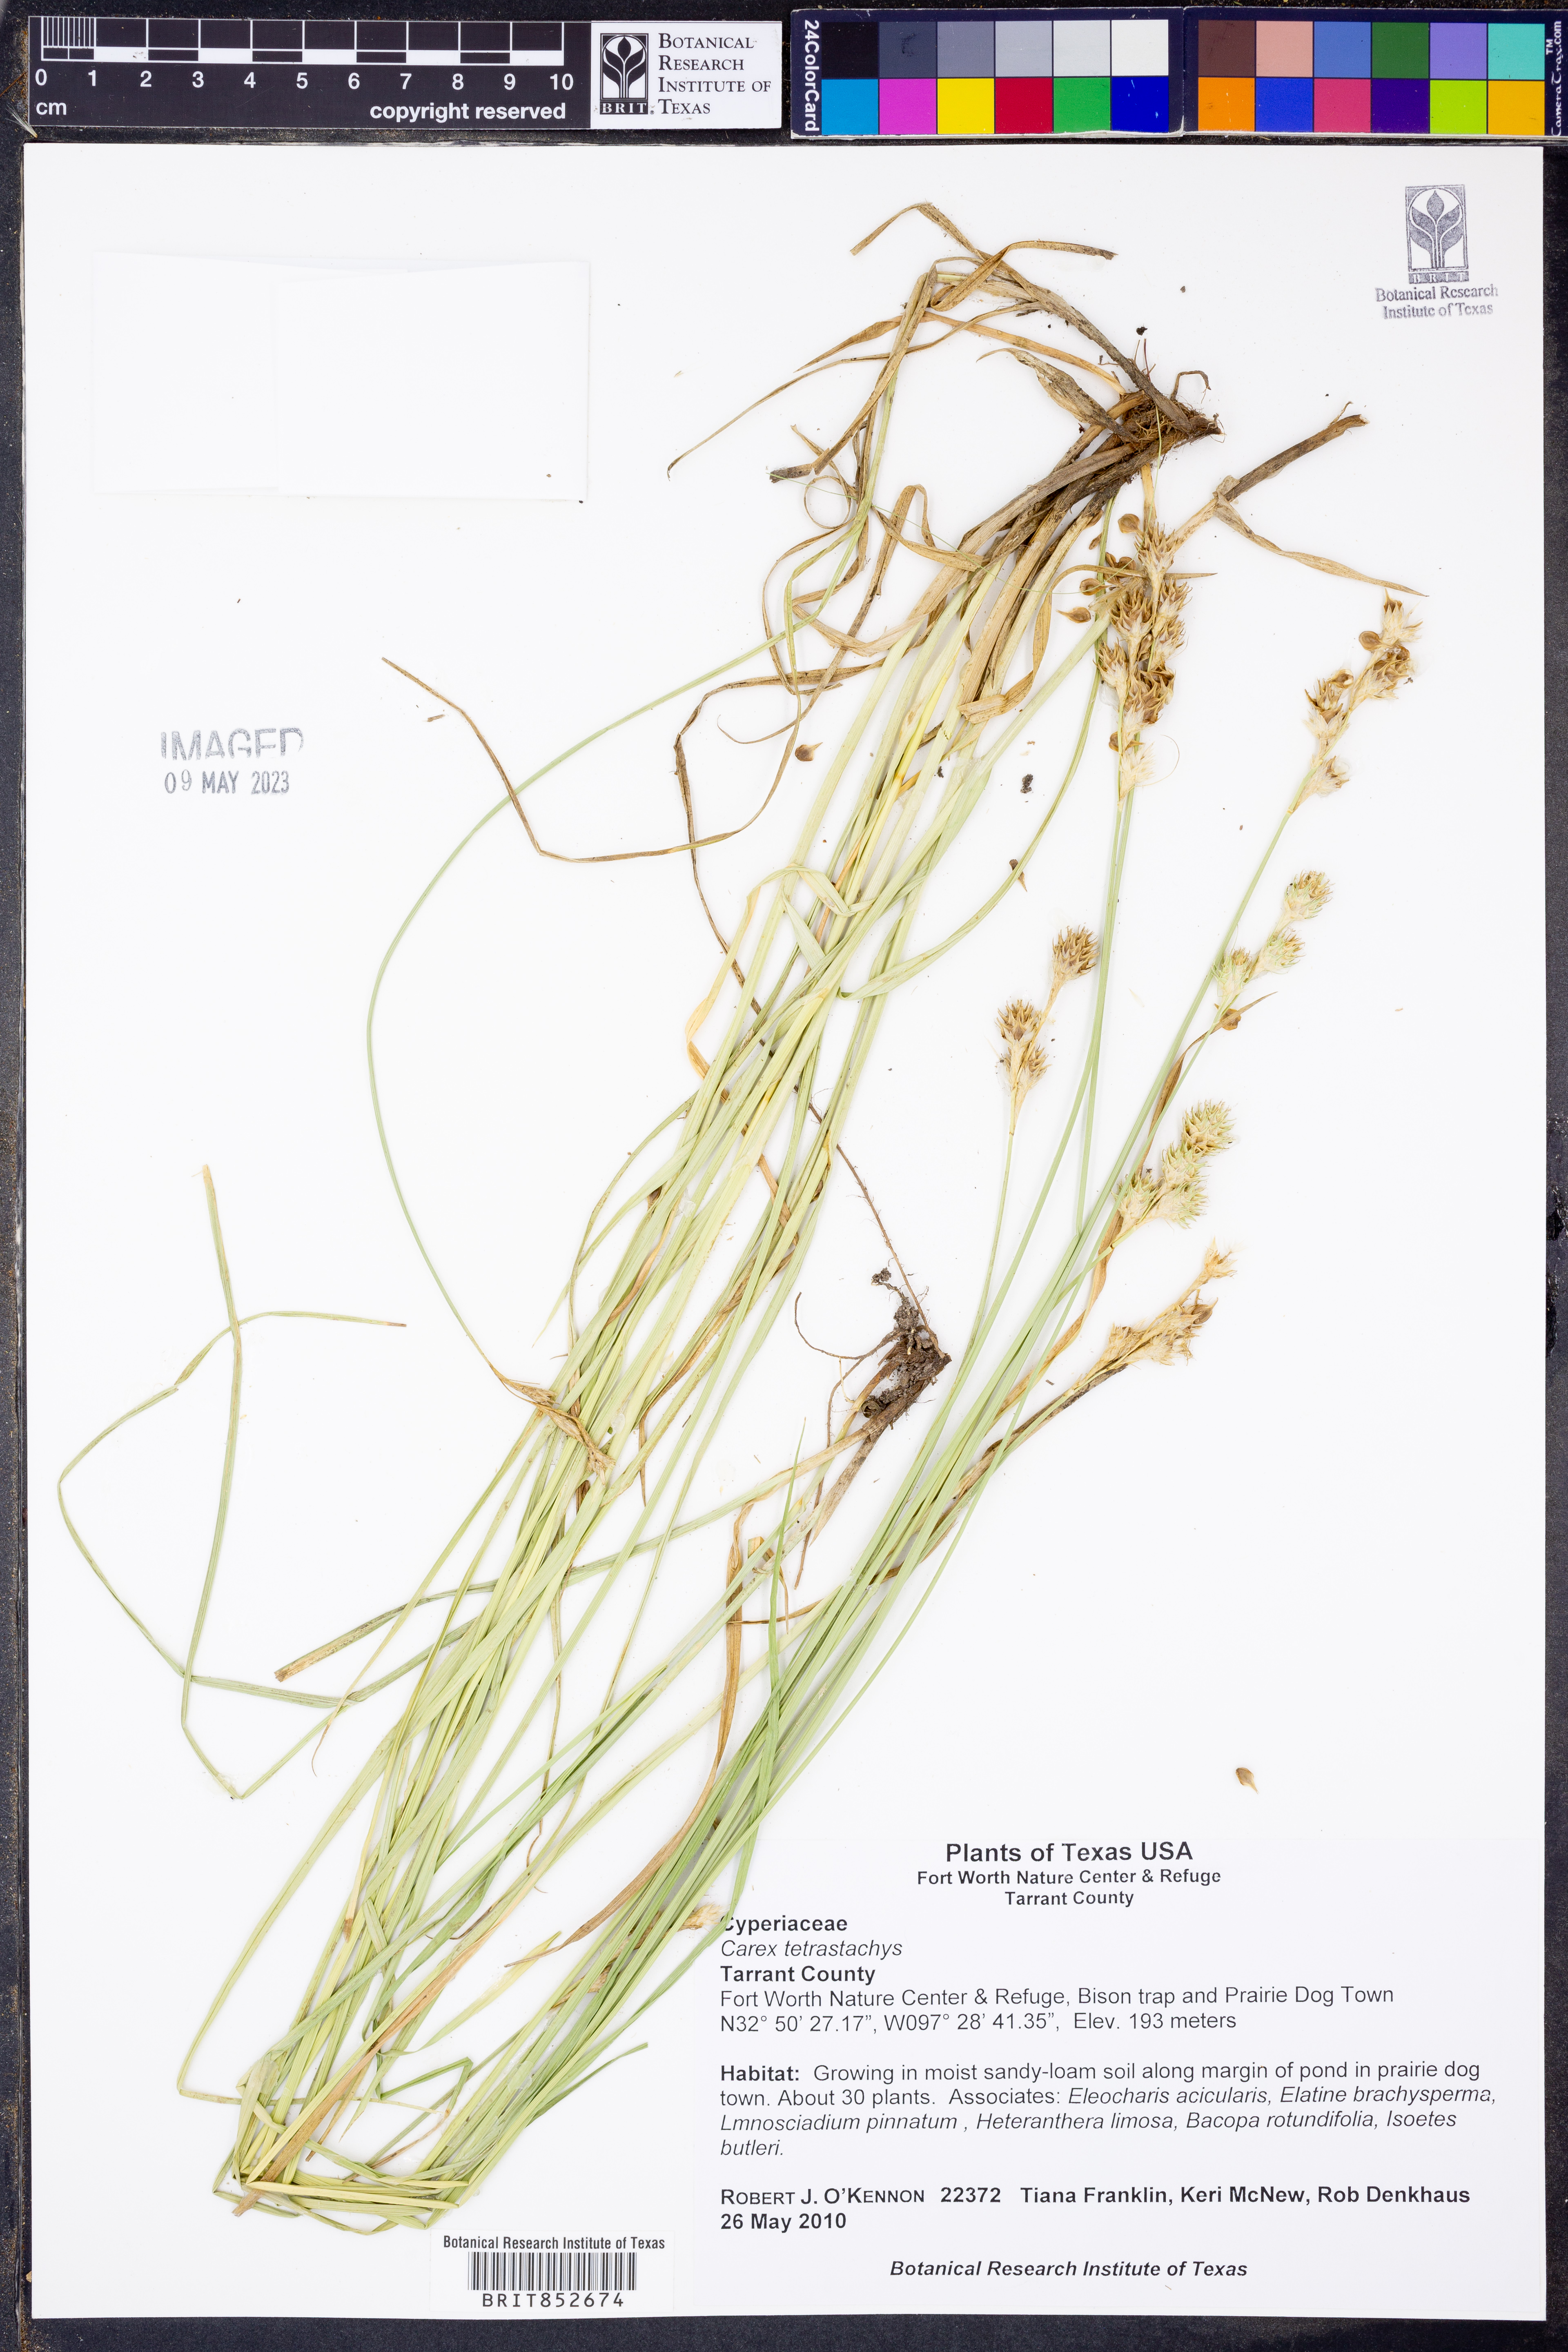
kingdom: Plantae
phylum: Tracheophyta
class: Liliopsida
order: Poales
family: Cyperaceae
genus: Carex
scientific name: Carex tetrastachya
